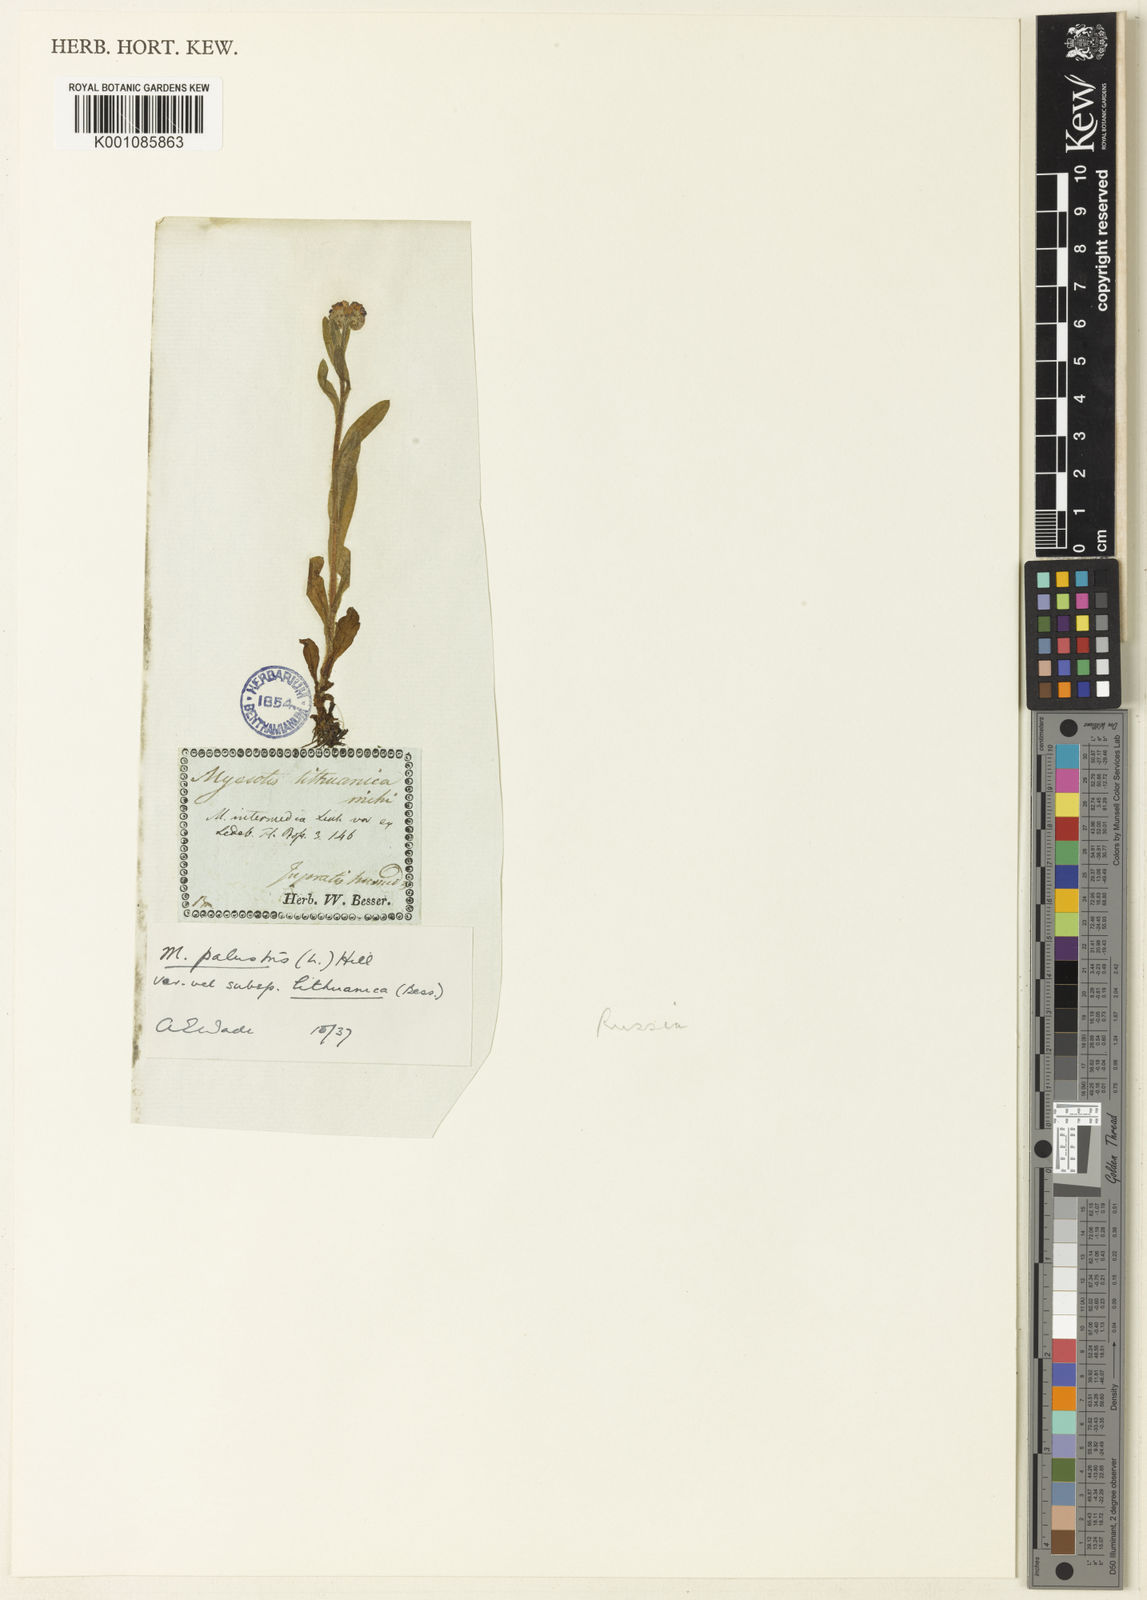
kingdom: Plantae
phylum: Tracheophyta
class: Magnoliopsida
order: Boraginales
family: Boraginaceae
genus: Myosotis
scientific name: Myosotis scorpioides
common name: Water forget-me-not
